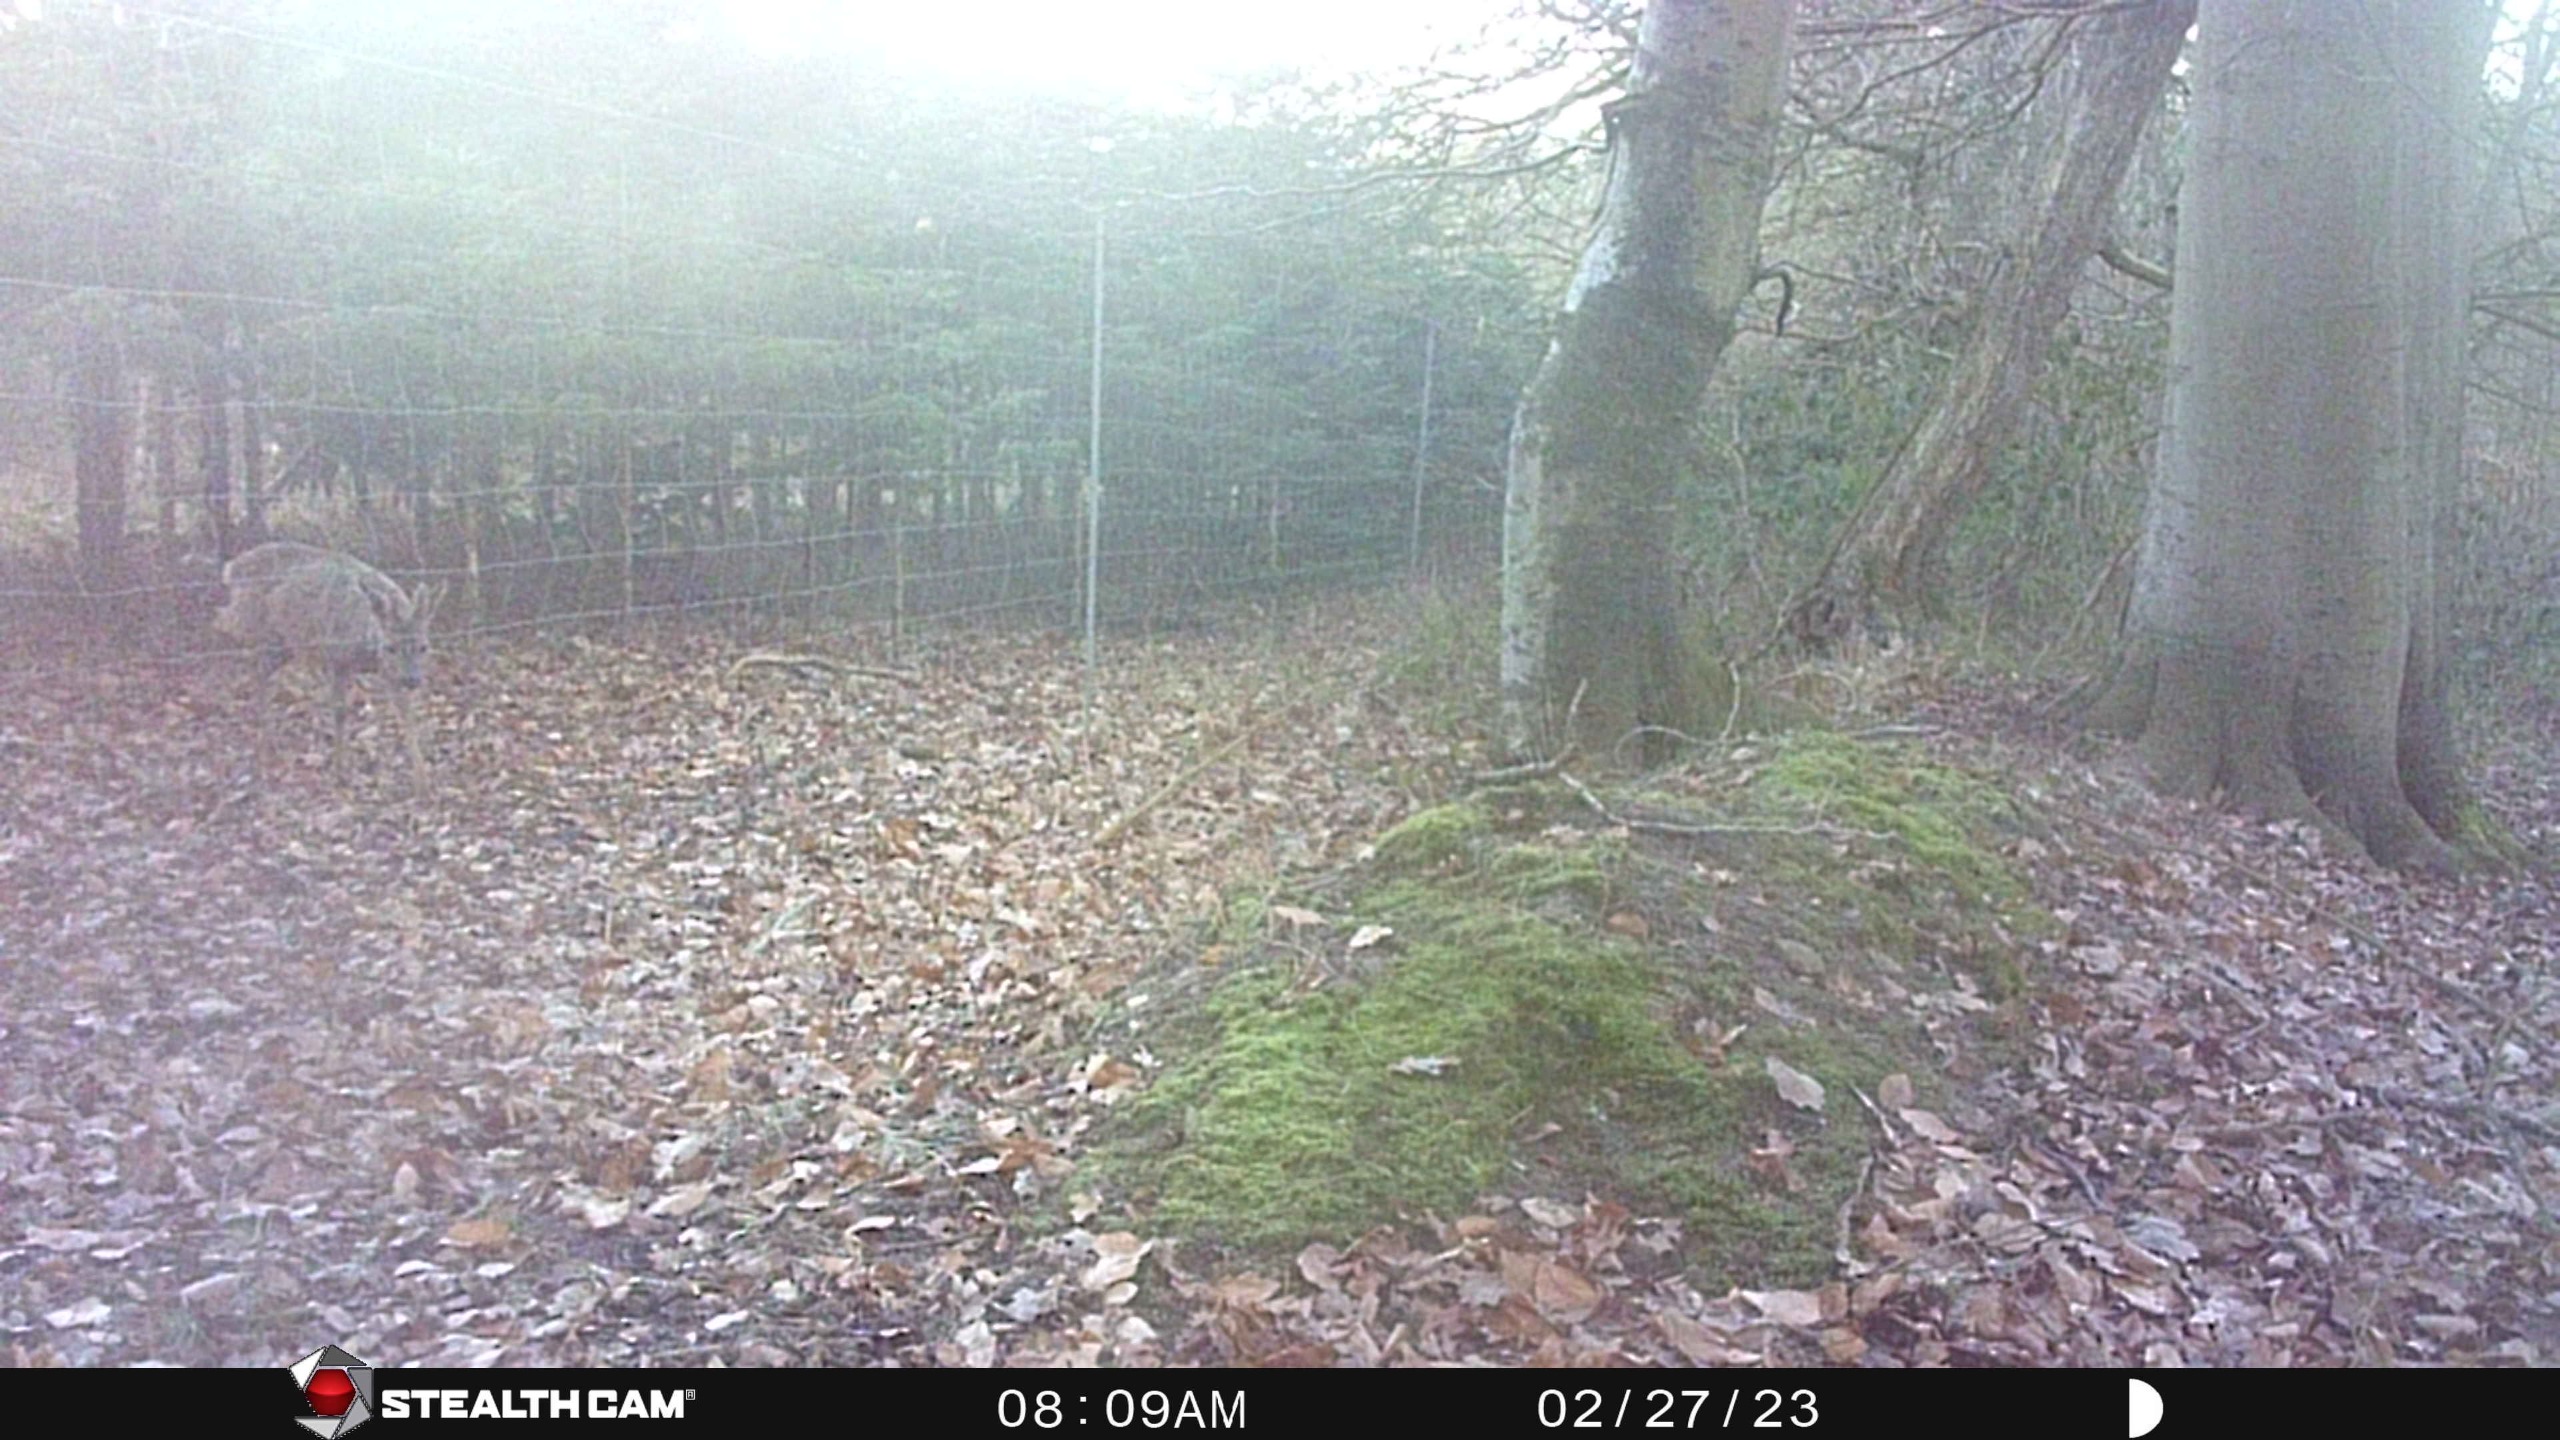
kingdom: Animalia
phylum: Chordata
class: Mammalia
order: Artiodactyla
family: Cervidae
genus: Capreolus
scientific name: Capreolus capreolus
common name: Rådyr
